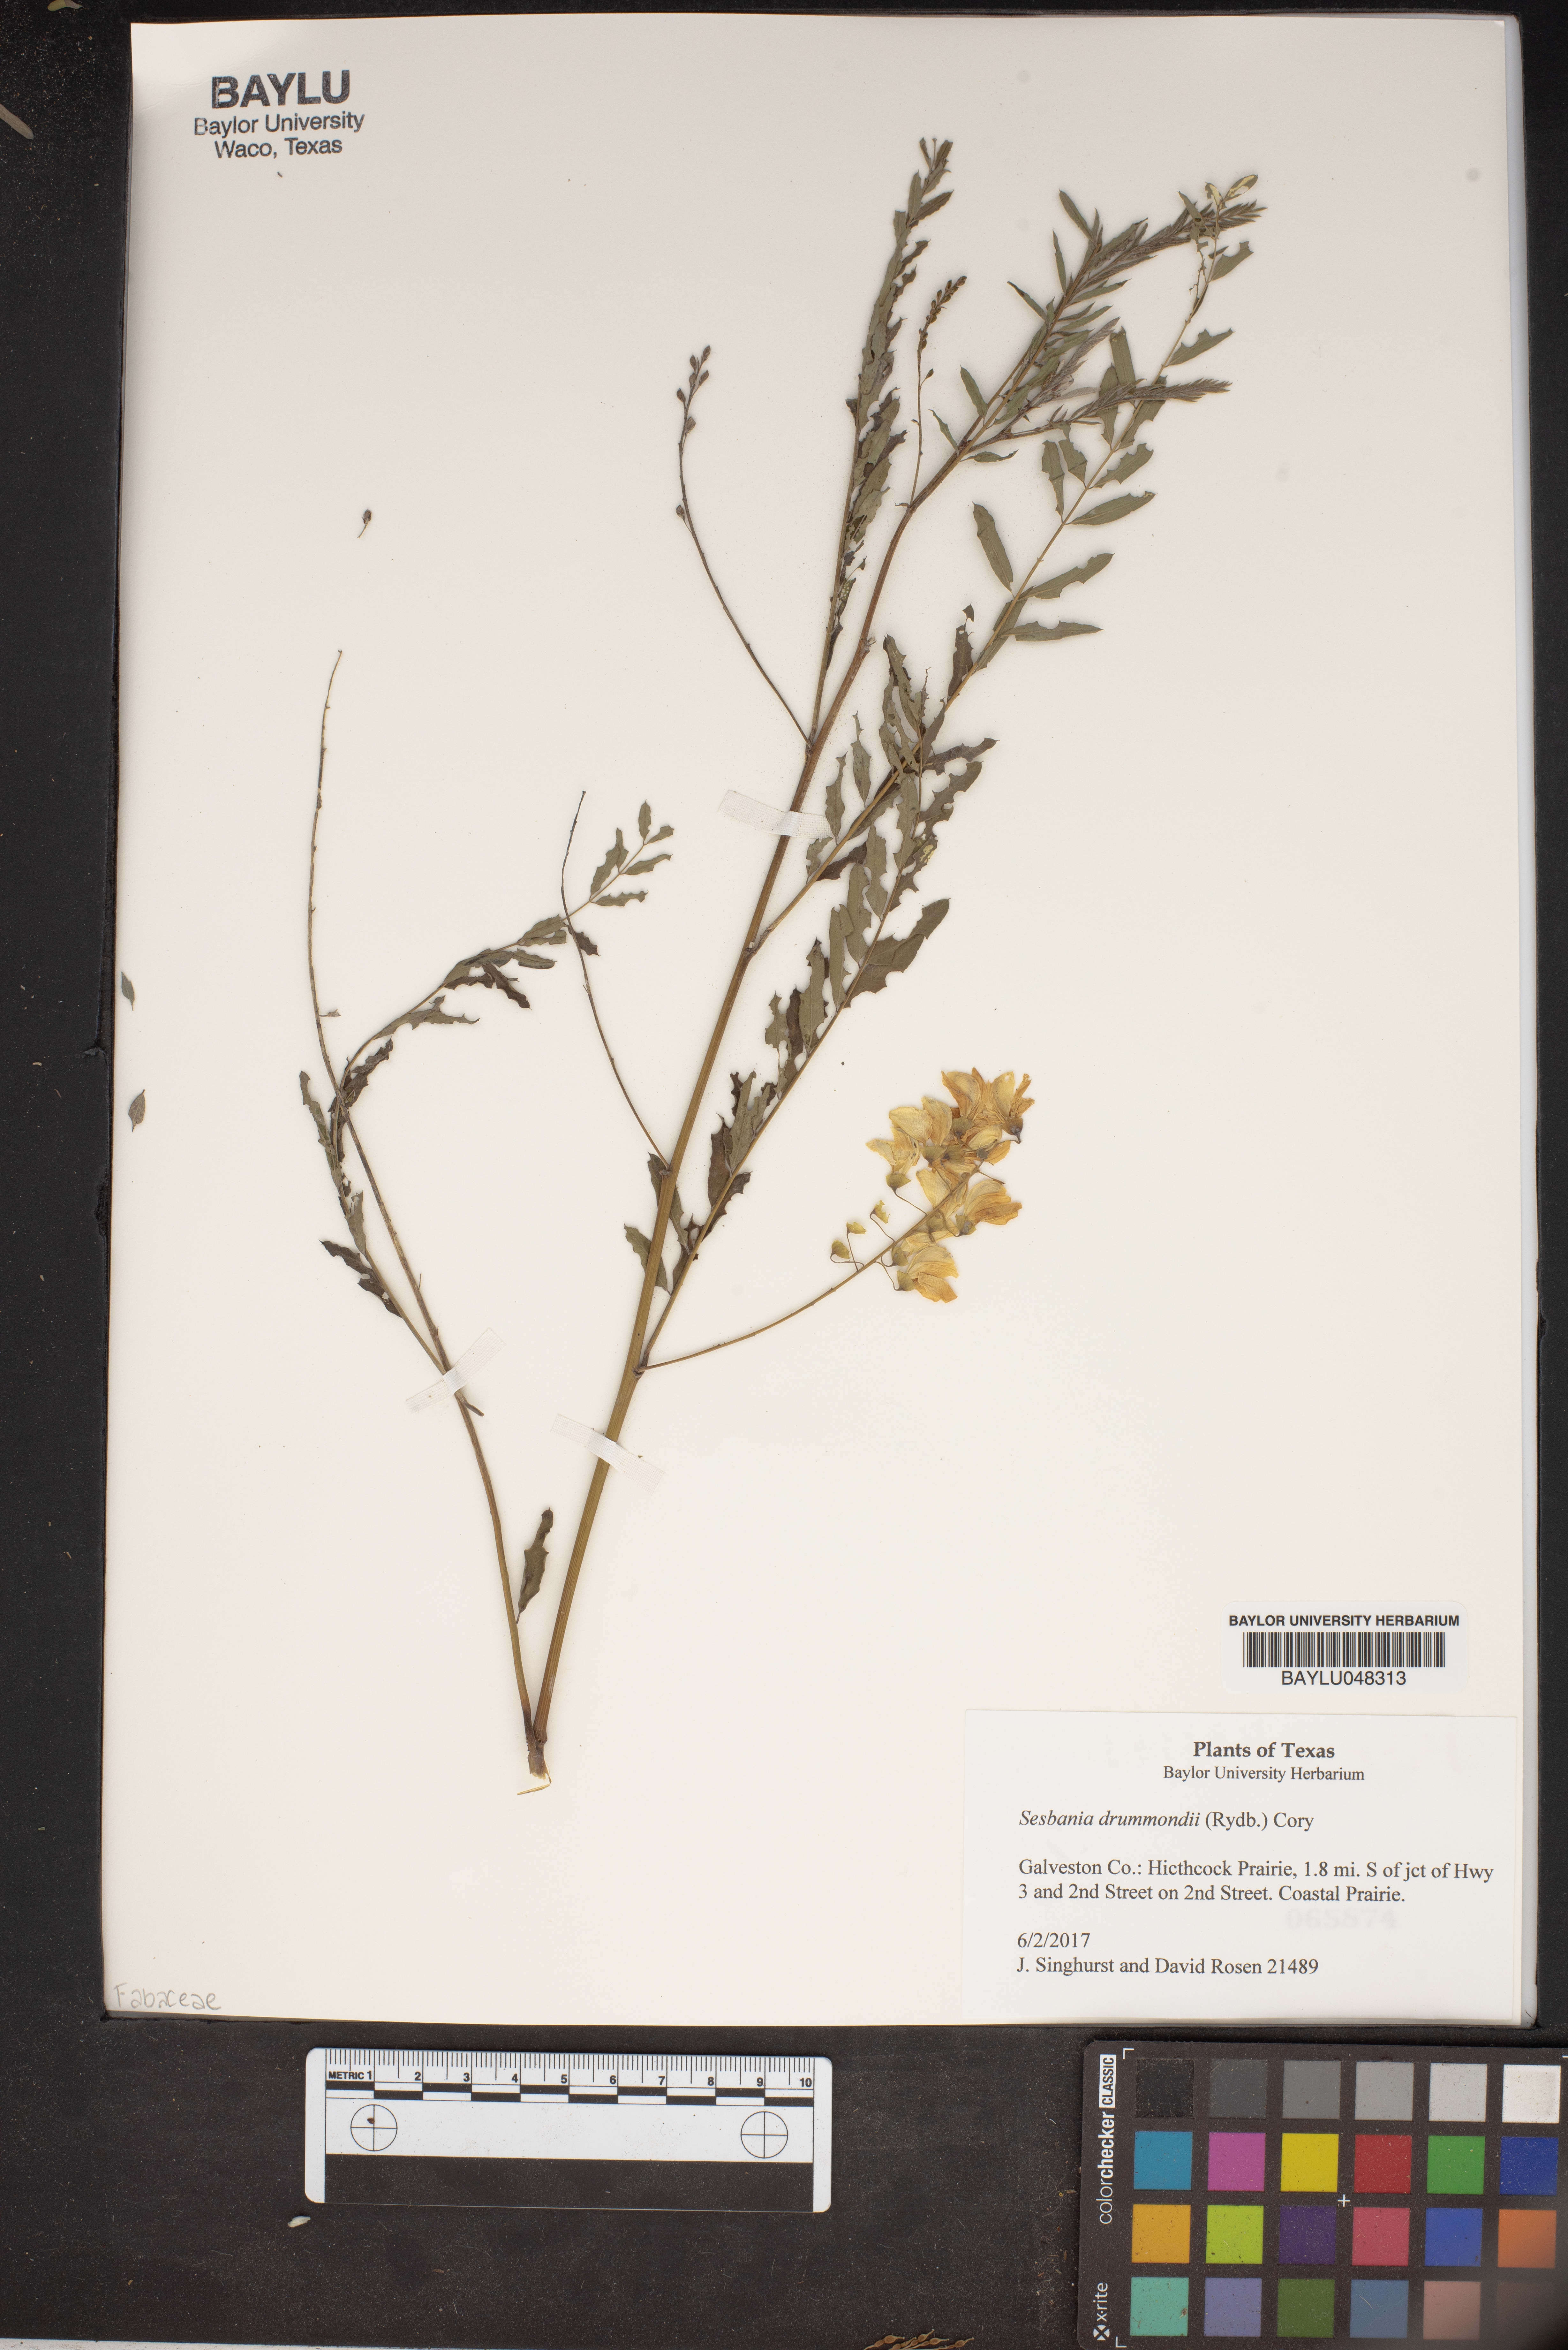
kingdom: Plantae
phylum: Tracheophyta
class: Magnoliopsida
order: Fabales
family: Fabaceae
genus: Sesbania
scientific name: Sesbania drummondii
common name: Poison-bean
